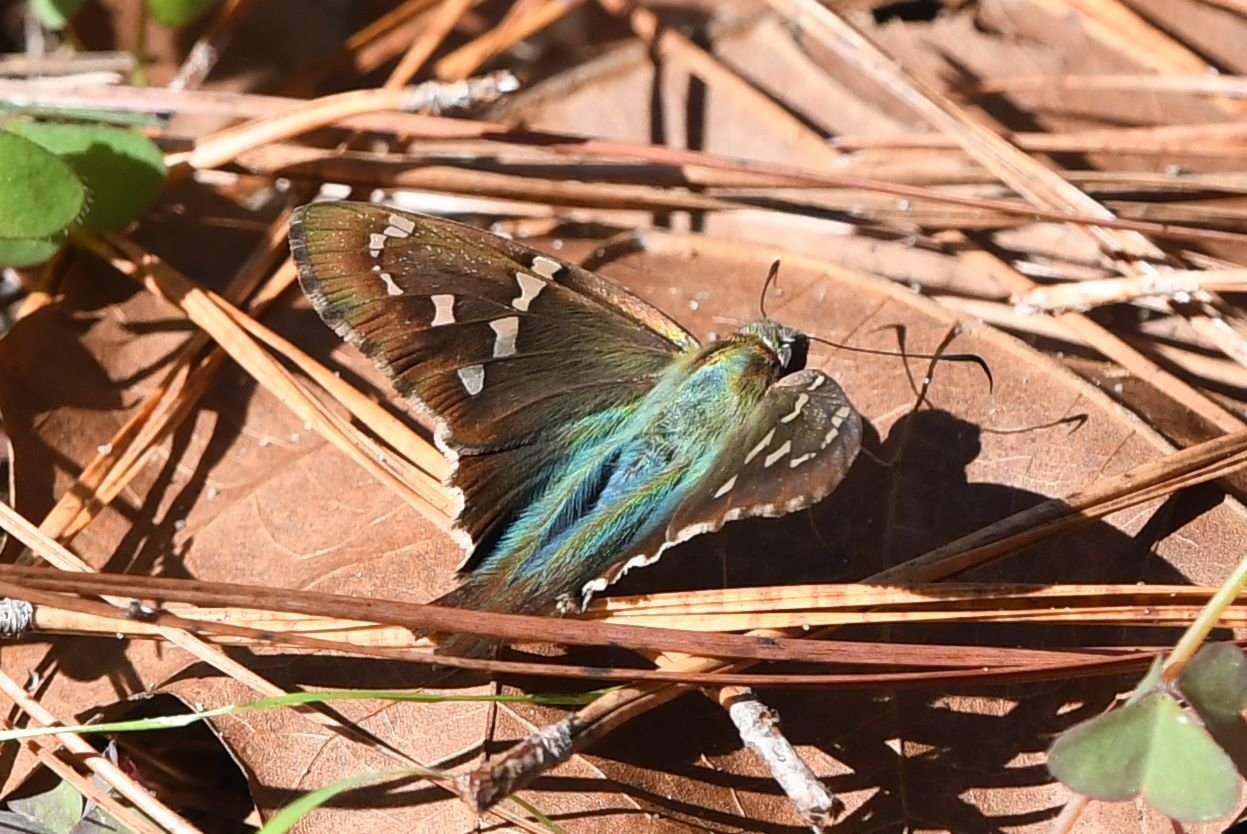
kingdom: Animalia
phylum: Arthropoda
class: Insecta
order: Lepidoptera
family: Hesperiidae
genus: Urbanus
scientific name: Urbanus proteus
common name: Long-tailed Skipper
